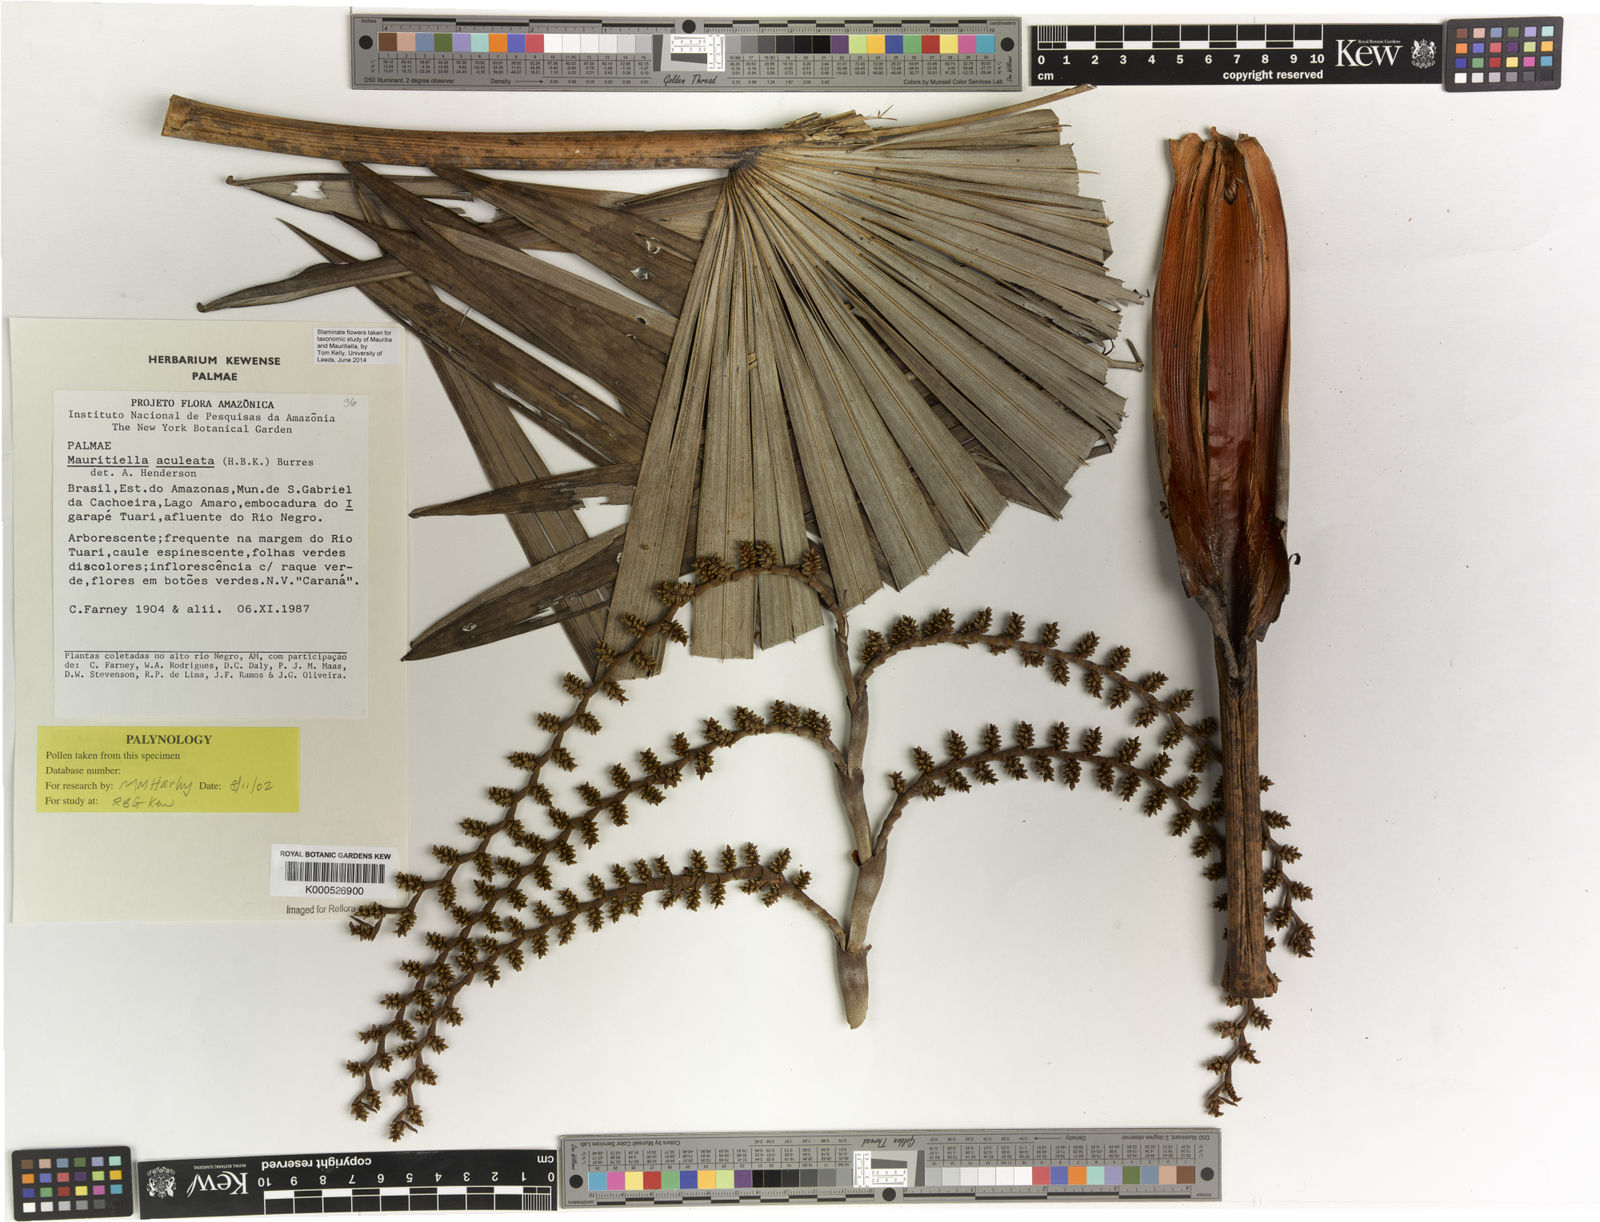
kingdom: Plantae
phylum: Tracheophyta
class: Liliopsida
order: Arecales
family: Arecaceae
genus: Mauritiella
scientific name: Mauritiella aculeata
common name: Buritirana
